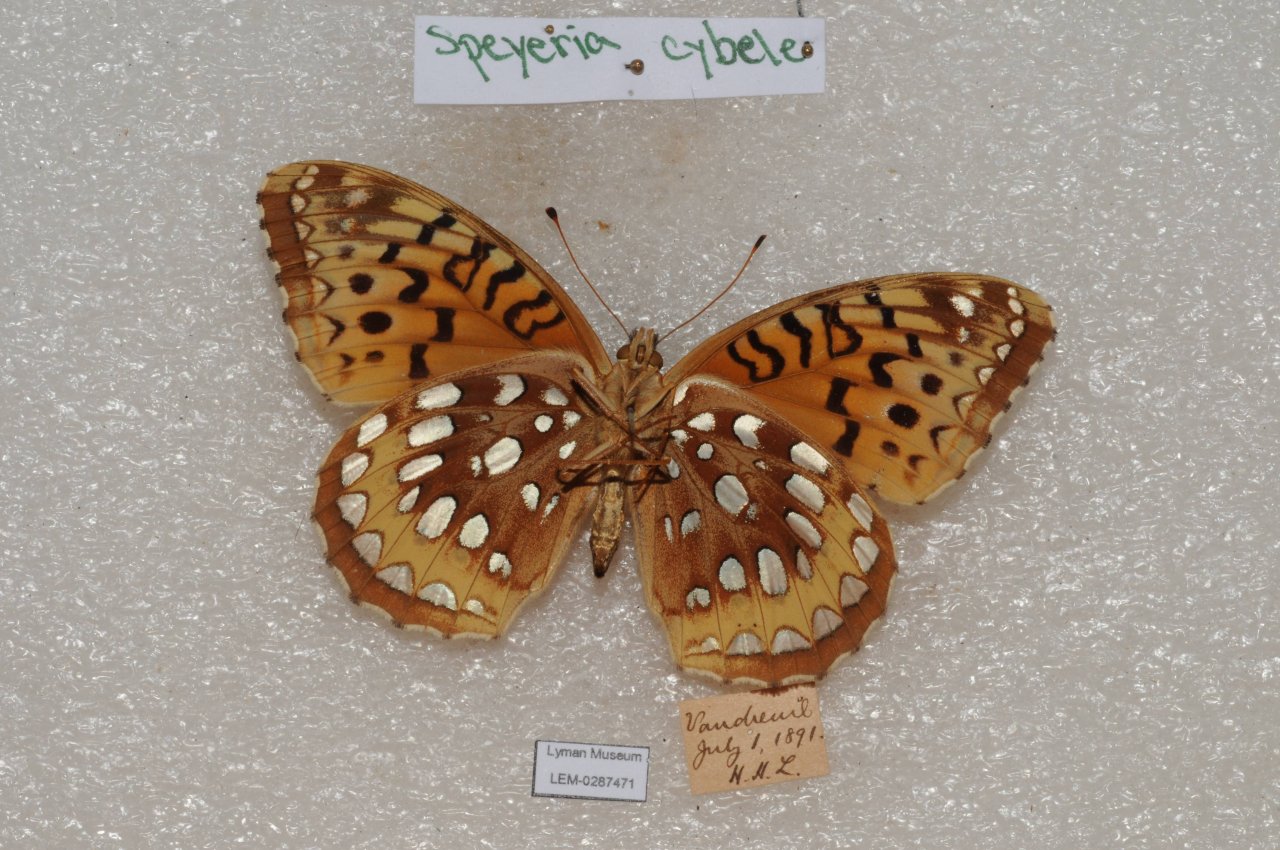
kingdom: Animalia
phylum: Arthropoda
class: Insecta
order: Lepidoptera
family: Nymphalidae
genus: Speyeria
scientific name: Speyeria cybele
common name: Great Spangled Fritillary
